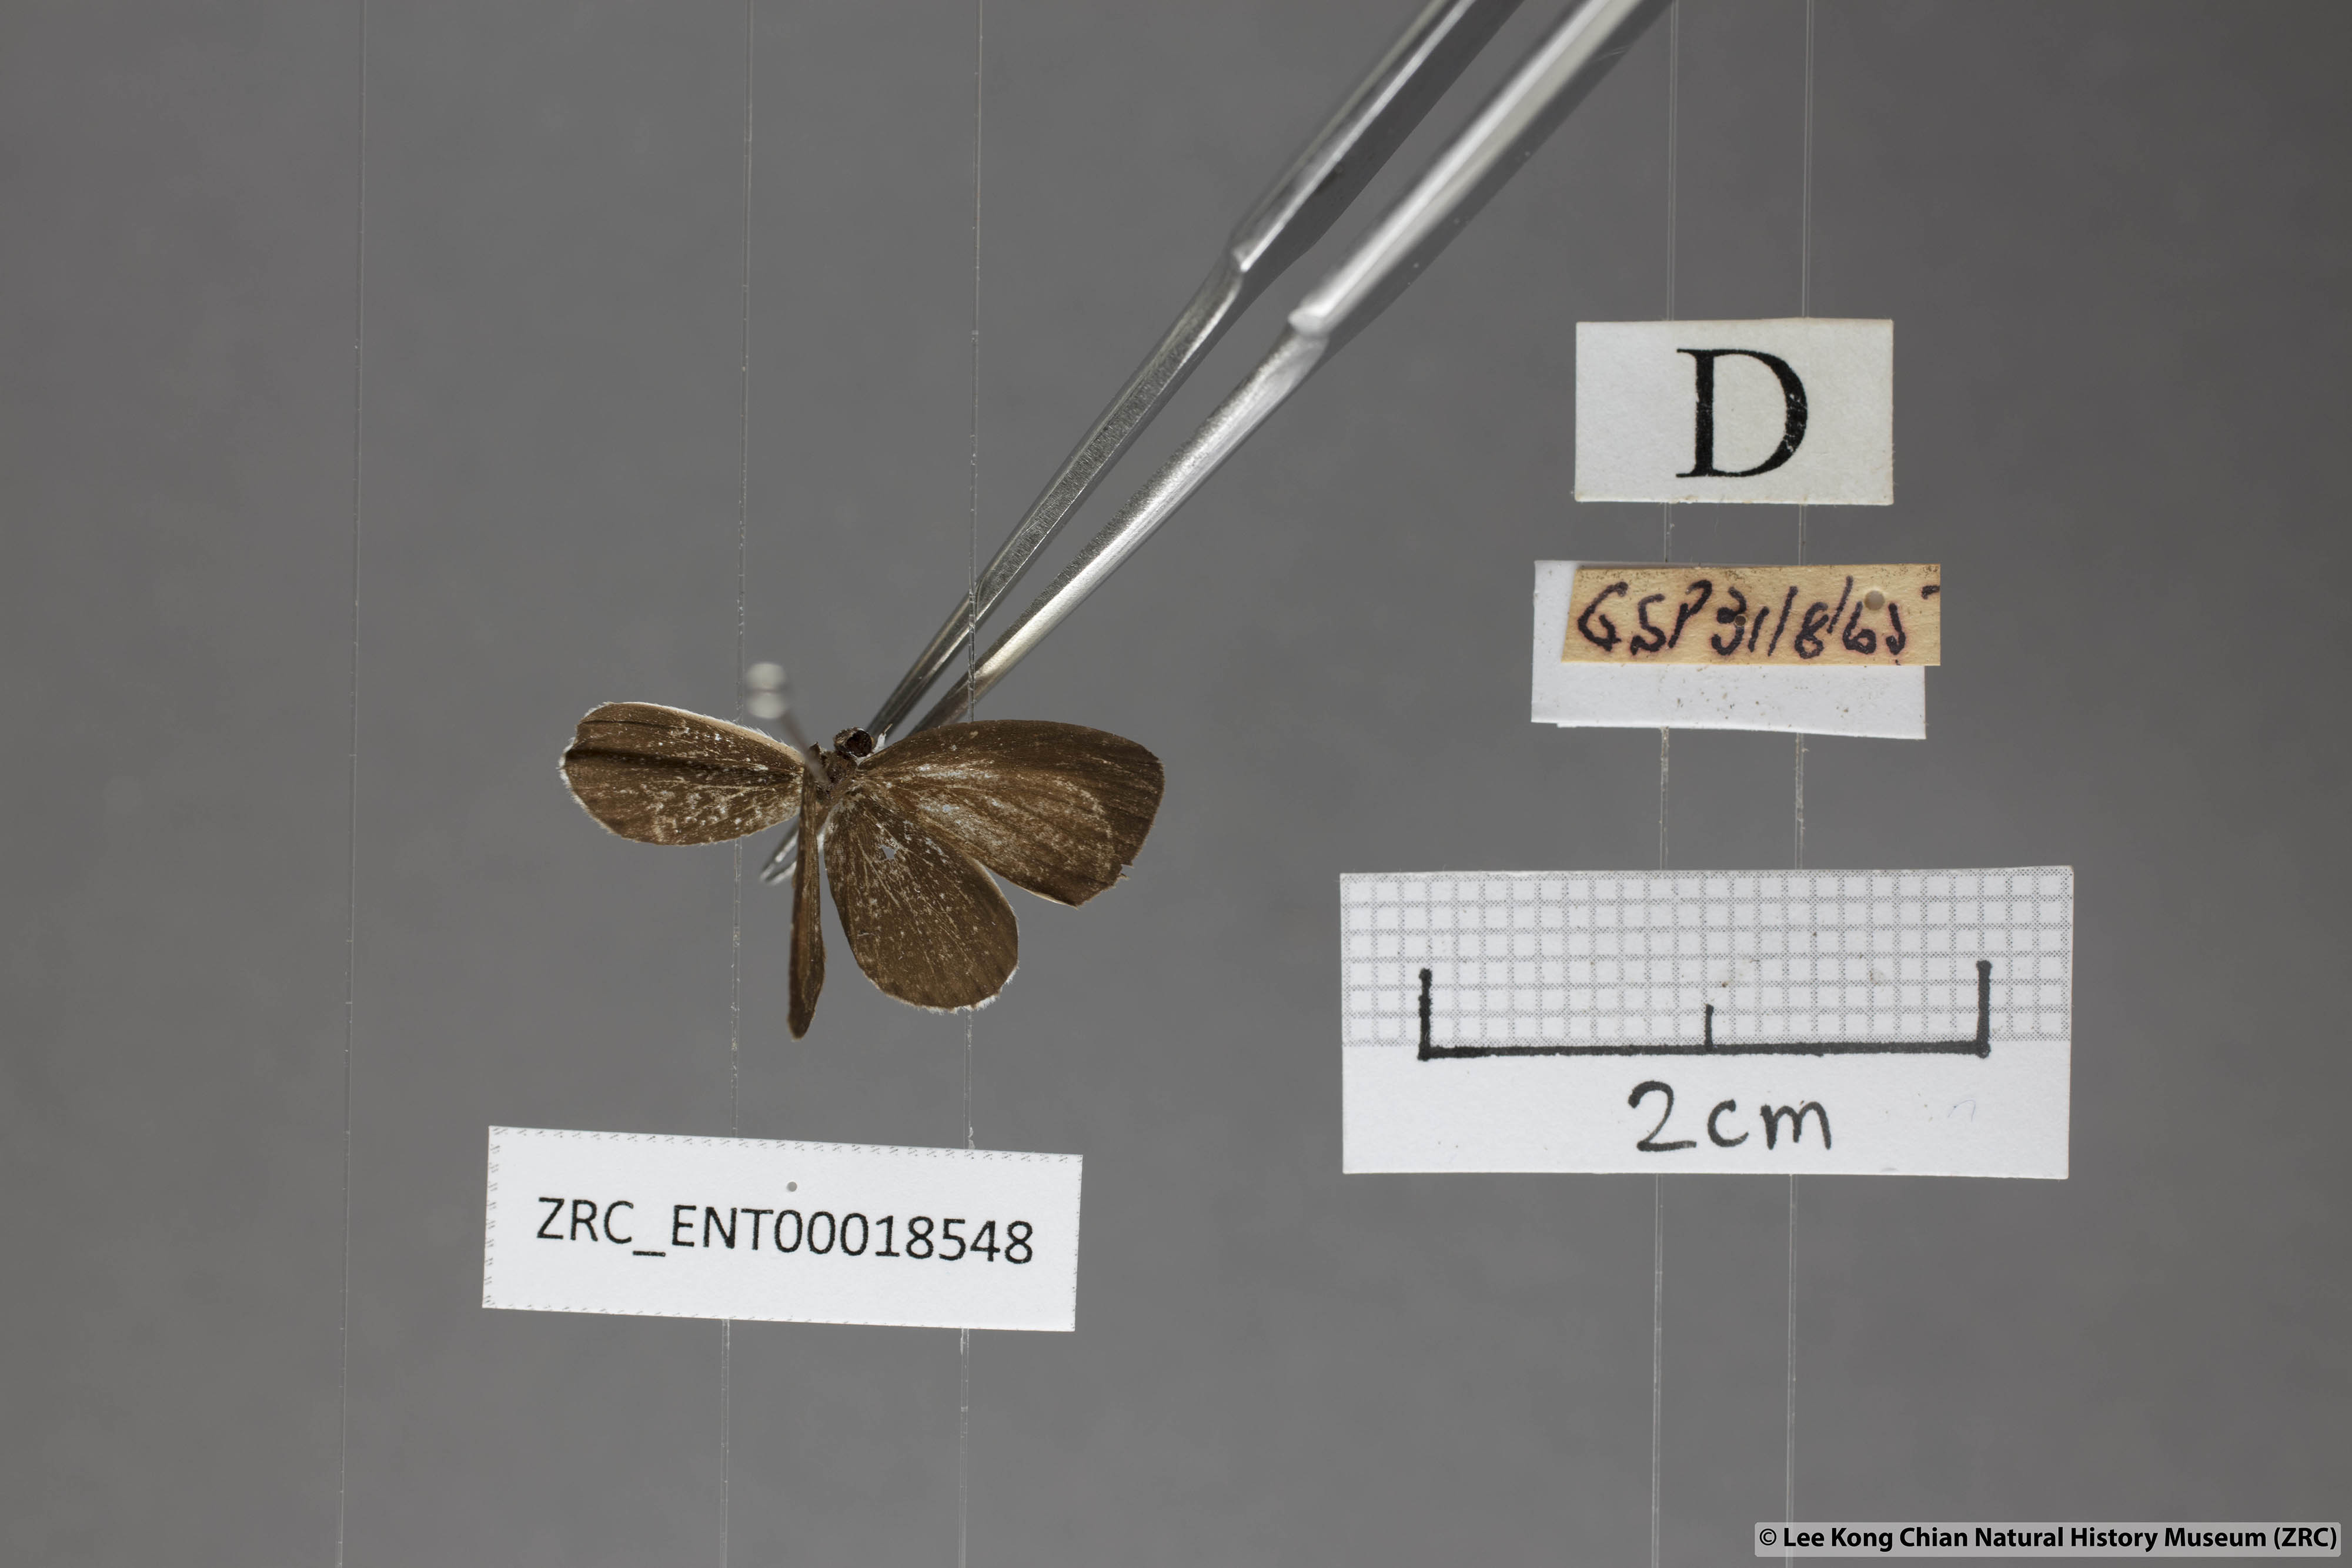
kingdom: Animalia
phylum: Arthropoda
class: Insecta
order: Lepidoptera
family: Lycaenidae
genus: Pithecops
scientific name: Pithecops corvus
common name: Forest quaker
